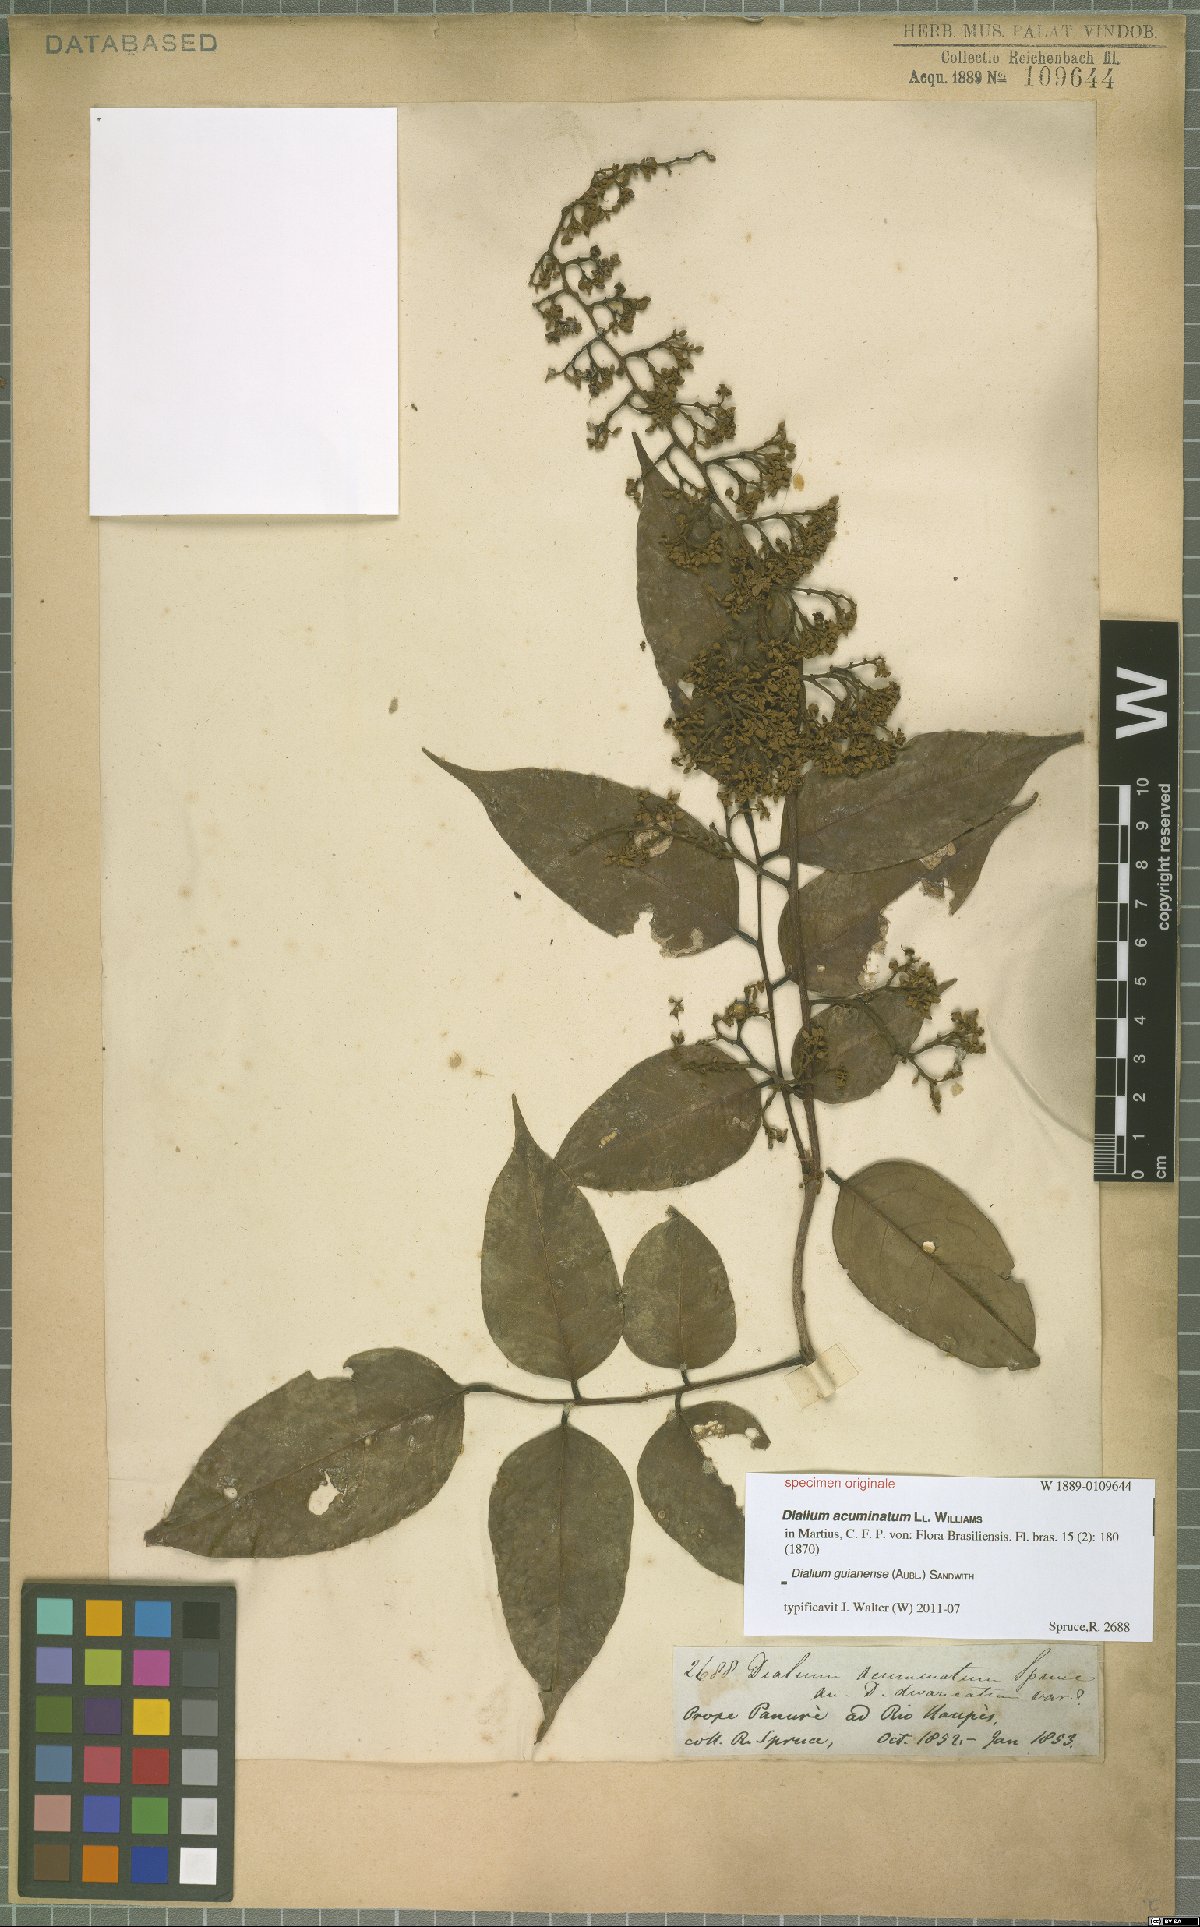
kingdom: Plantae
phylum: Tracheophyta
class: Magnoliopsida
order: Fabales
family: Fabaceae
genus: Dialium
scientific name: Dialium guianense
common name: Ironwood
